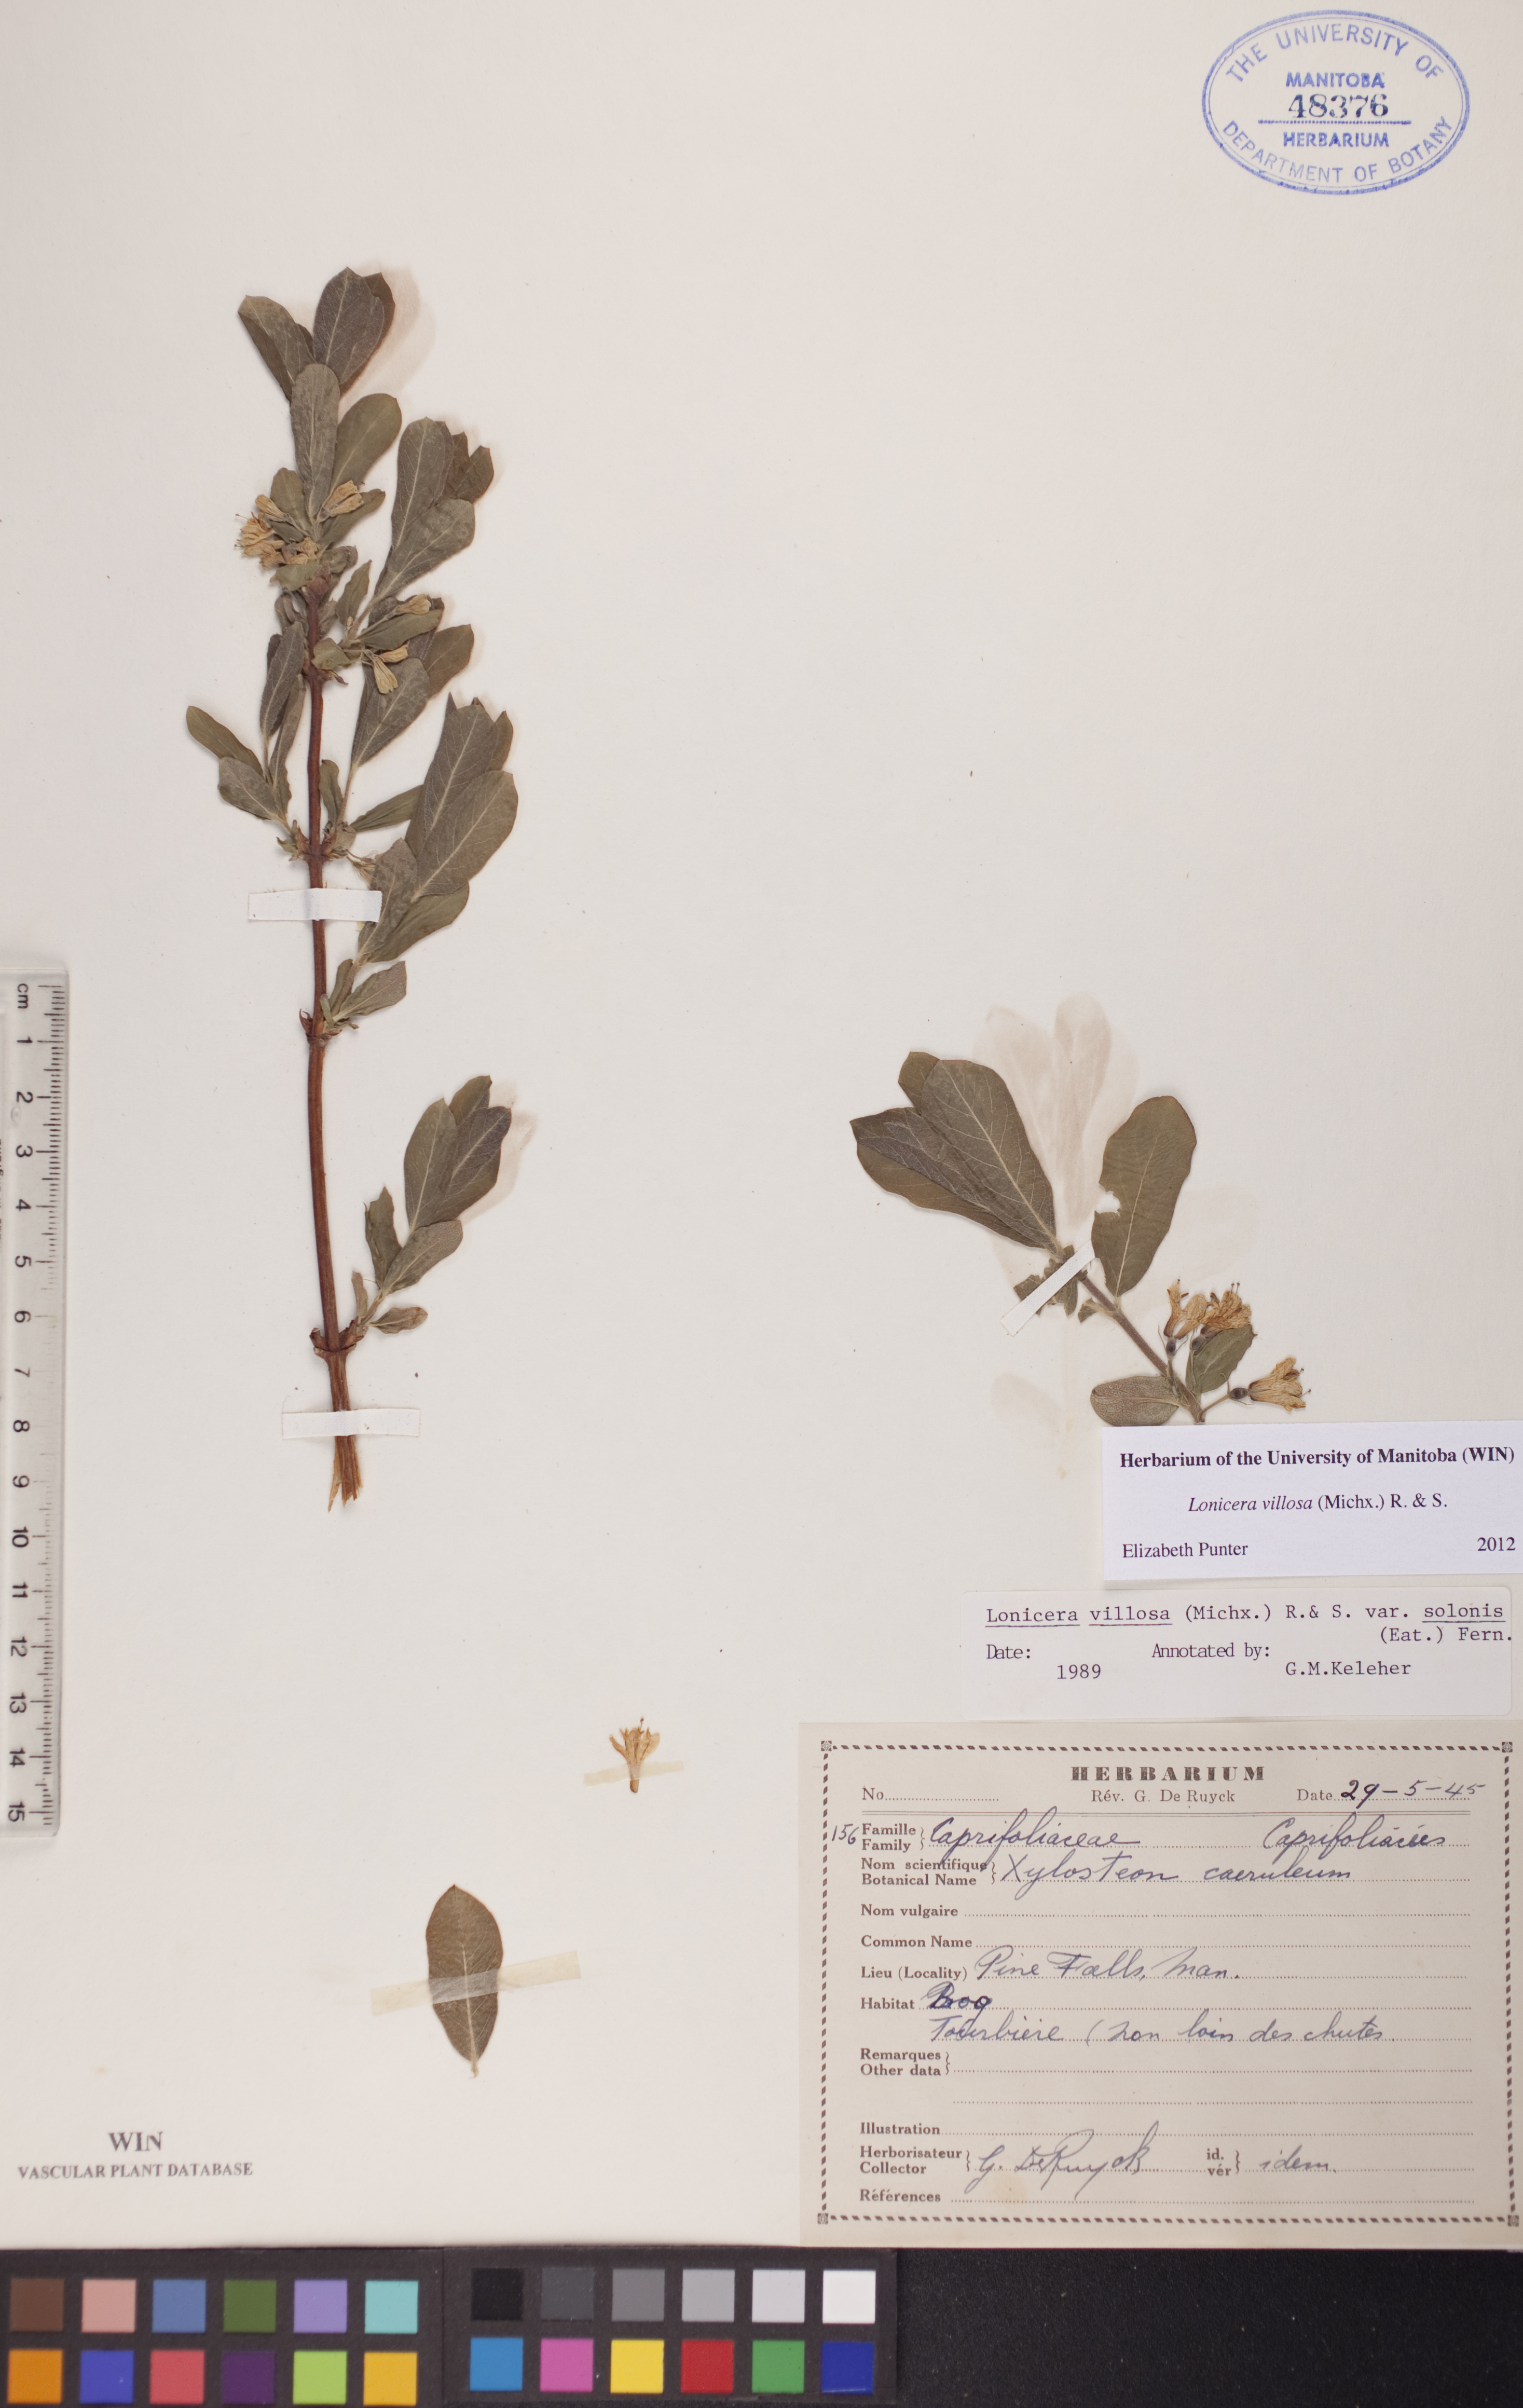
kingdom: Plantae
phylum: Tracheophyta
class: Magnoliopsida
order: Dipsacales
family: Caprifoliaceae
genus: Lonicera
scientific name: Lonicera villosa
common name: Mountain fly-honeysuckle
